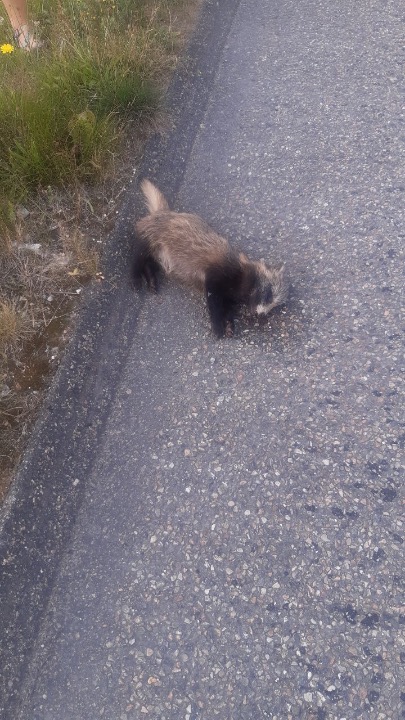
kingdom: Animalia
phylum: Chordata
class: Mammalia
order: Carnivora
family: Canidae
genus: Nyctereutes
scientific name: Nyctereutes procyonoides
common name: Mårhund
